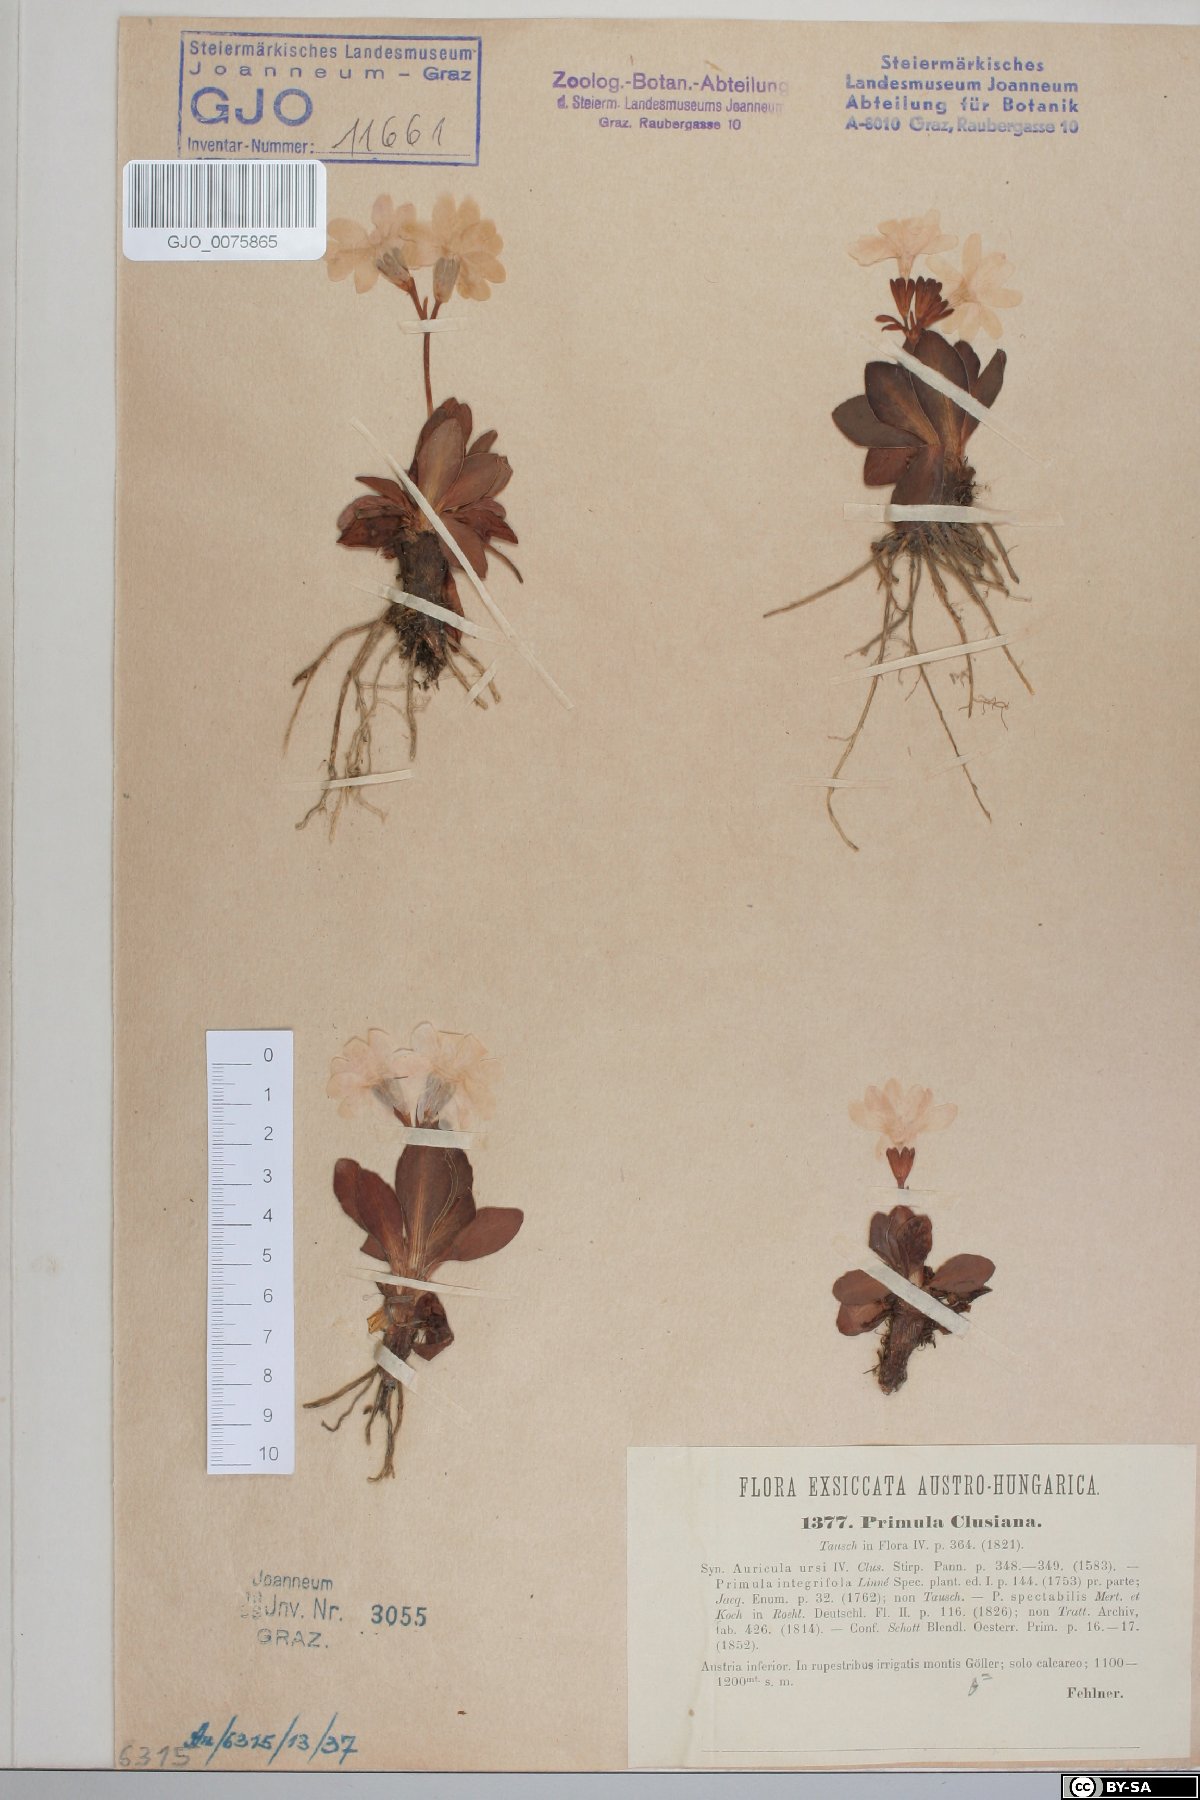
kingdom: Plantae
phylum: Tracheophyta
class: Magnoliopsida
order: Ericales
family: Primulaceae
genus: Primula
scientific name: Primula clusiana
